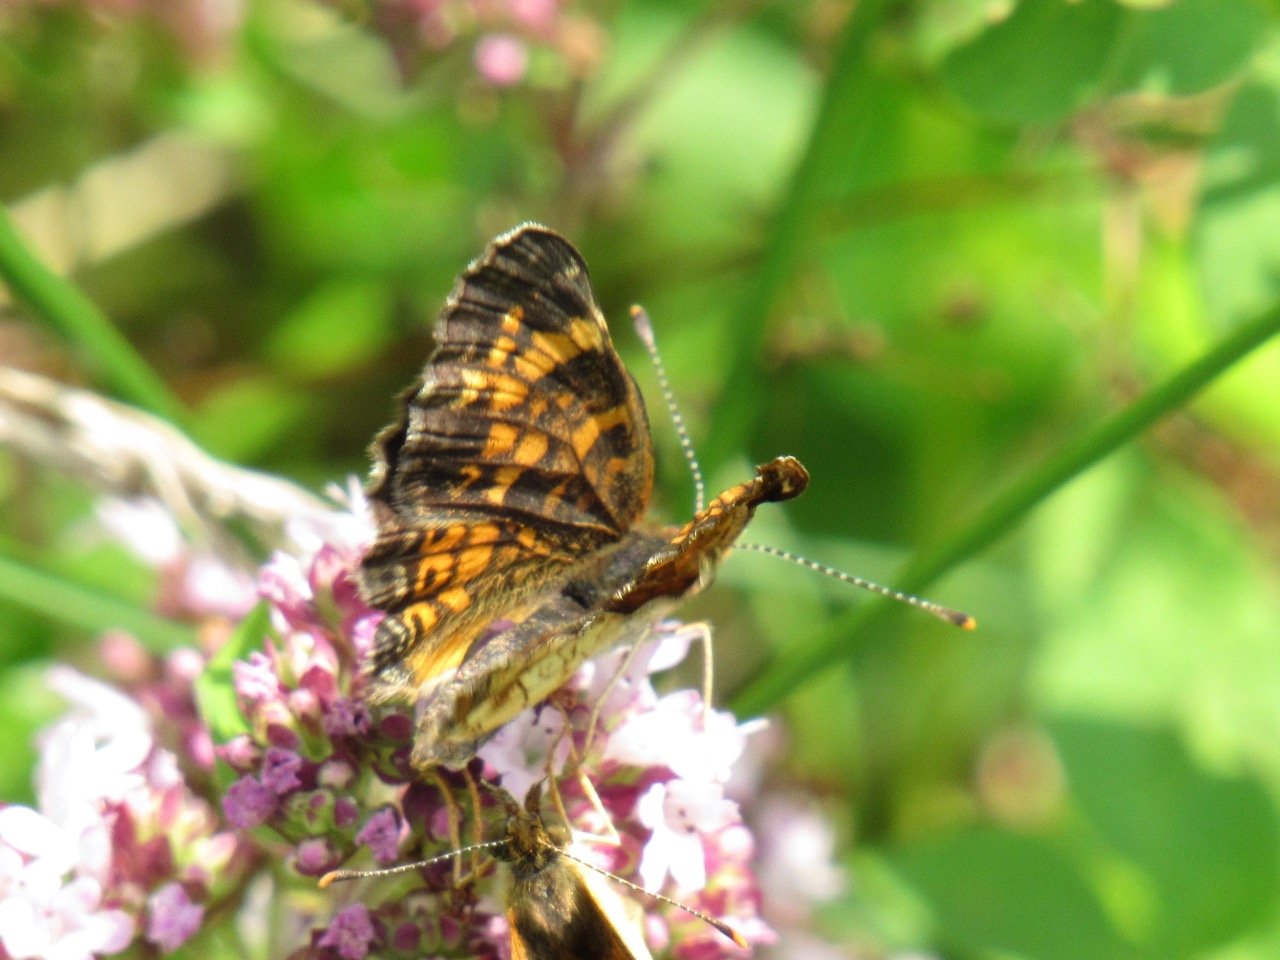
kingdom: Animalia
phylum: Arthropoda
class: Insecta
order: Lepidoptera
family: Nymphalidae
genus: Phyciodes
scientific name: Phyciodes tharos
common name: Pearl Crescent
